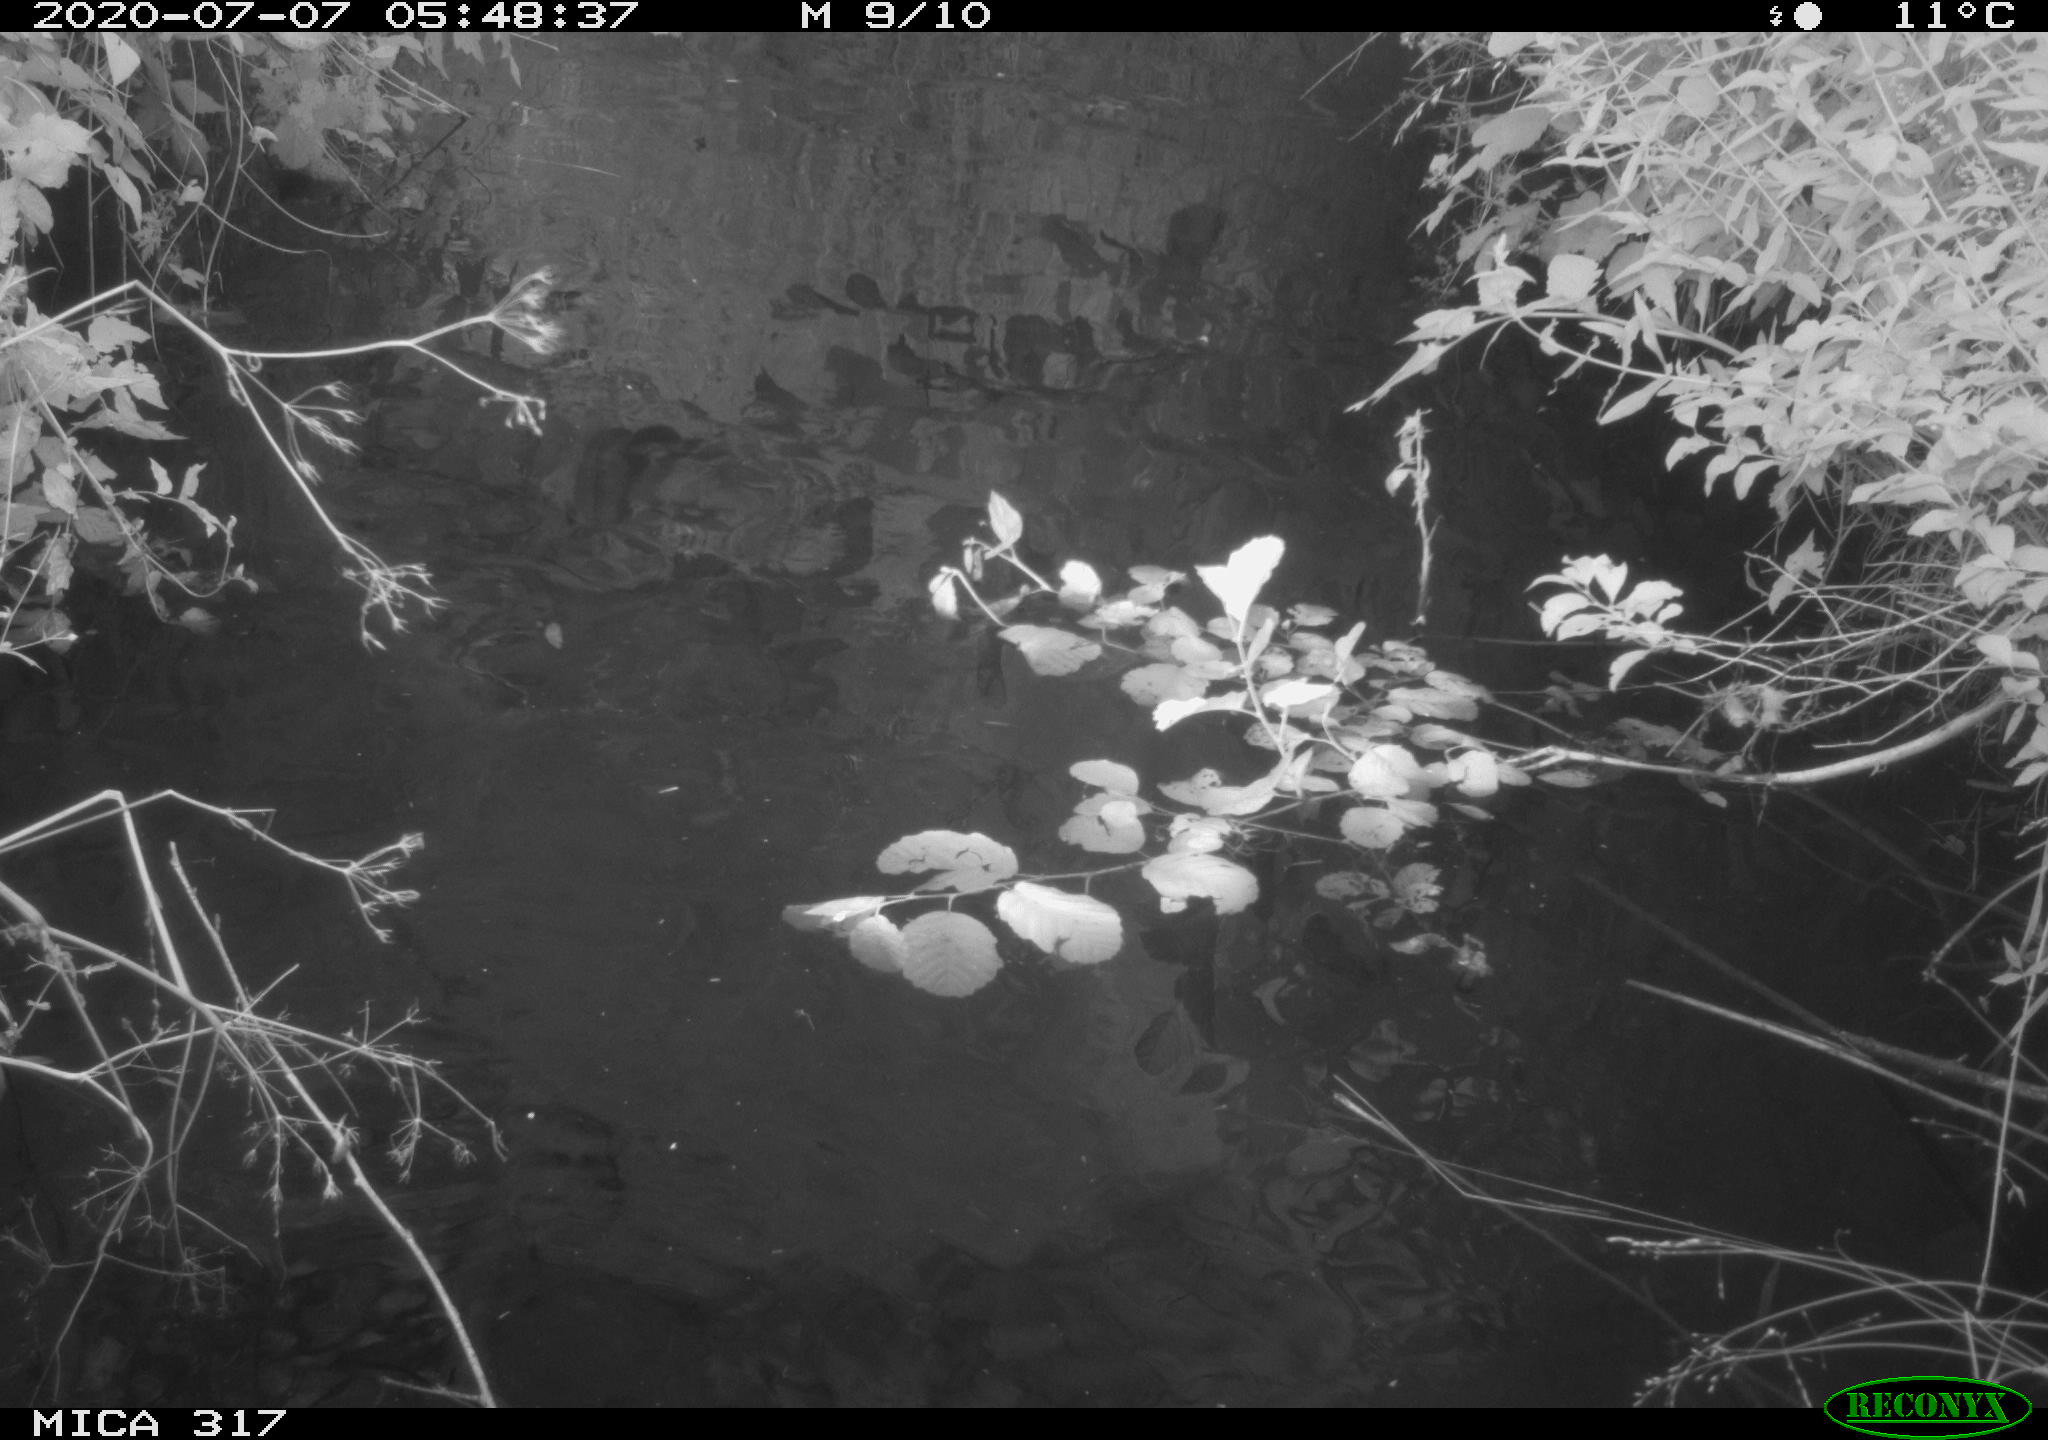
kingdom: Animalia
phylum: Chordata
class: Aves
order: Anseriformes
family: Anatidae
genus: Aix
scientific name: Aix galericulata
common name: Mandarin duck
